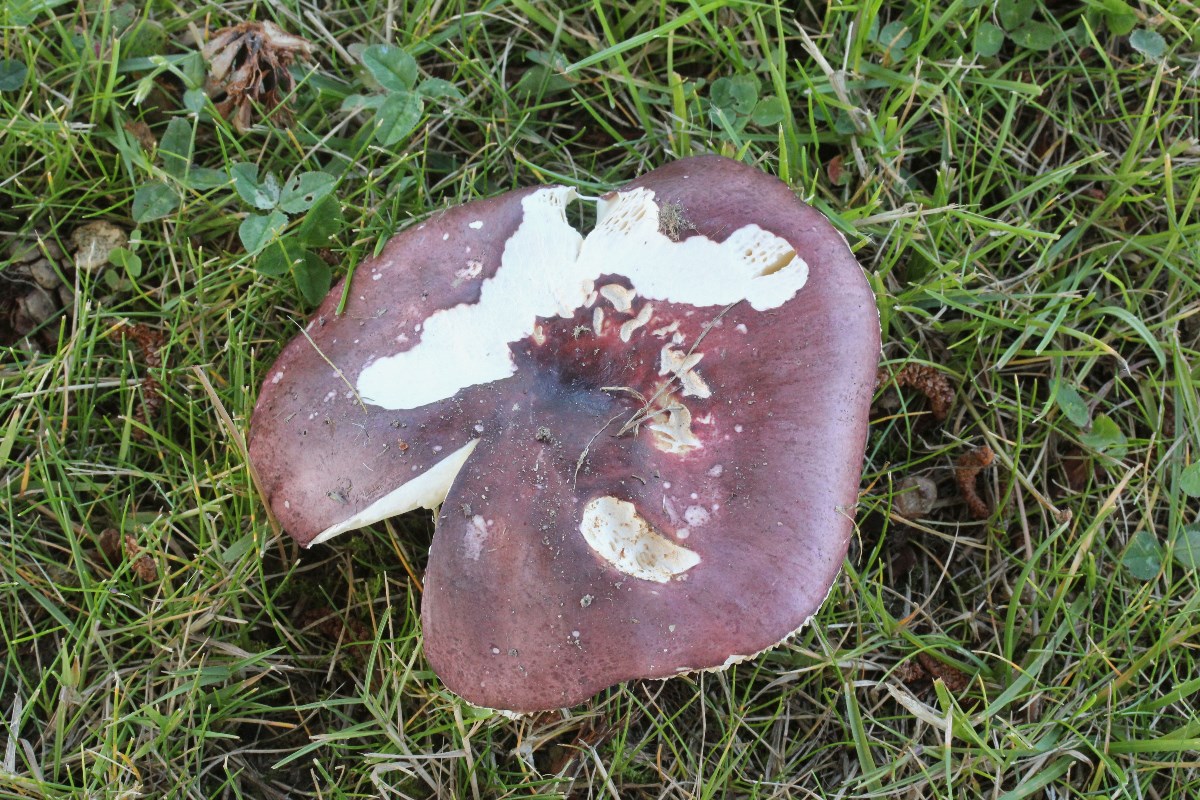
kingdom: Fungi
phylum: Basidiomycota
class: Agaricomycetes
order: Russulales
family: Russulaceae
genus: Russula
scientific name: Russula integra
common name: mandel-skørhat
